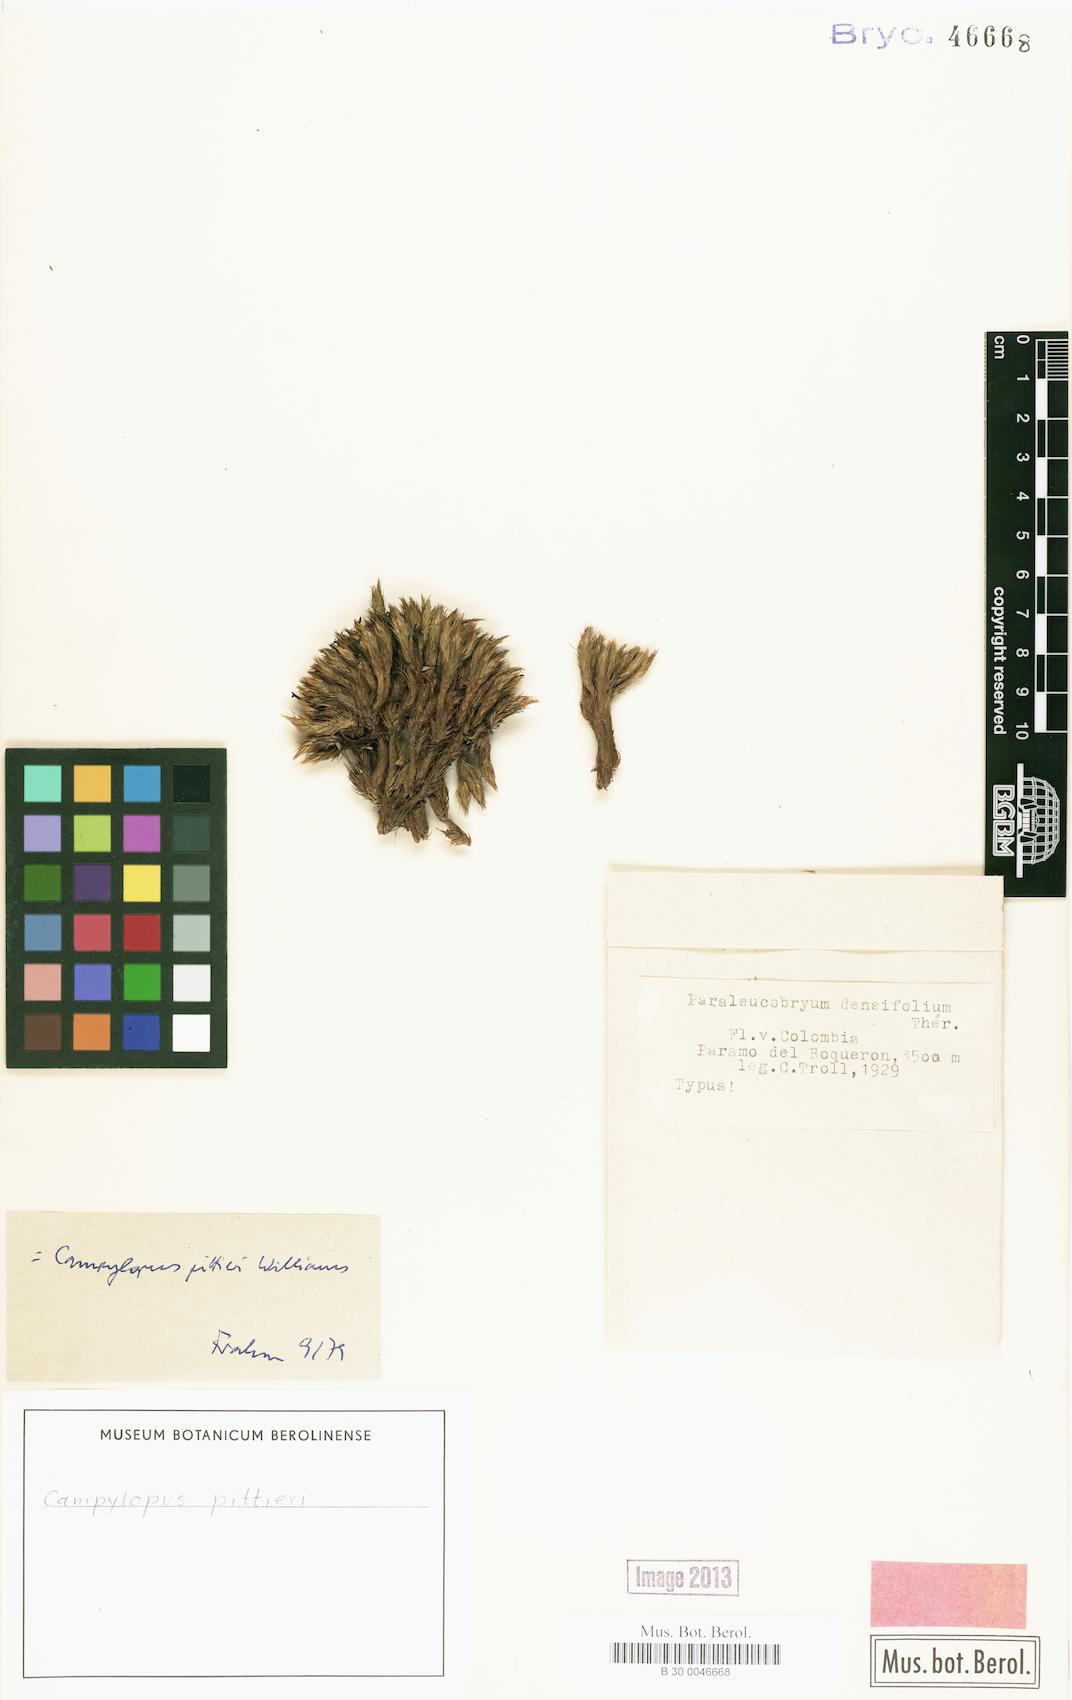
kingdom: Plantae
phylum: Bryophyta
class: Bryopsida
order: Dicranales
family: Leucobryaceae
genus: Campylopus
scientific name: Campylopus pittieri
